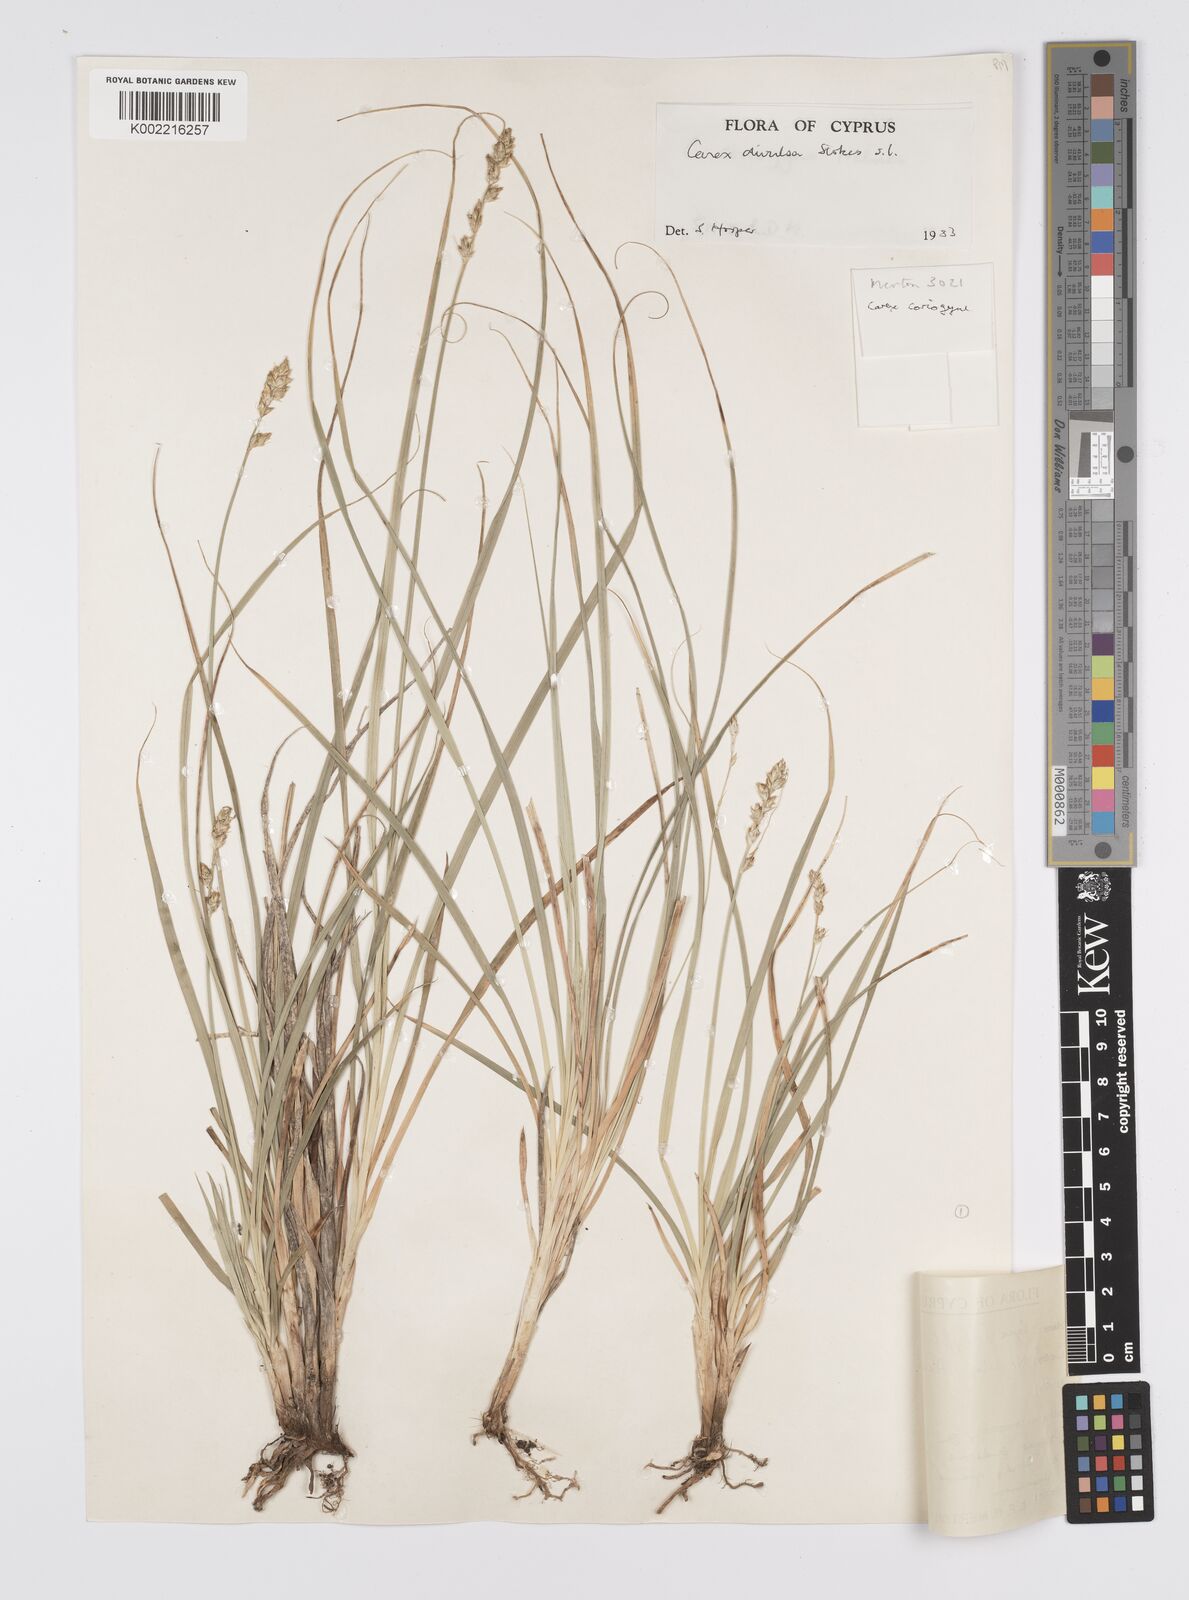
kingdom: Plantae
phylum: Tracheophyta
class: Liliopsida
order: Poales
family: Cyperaceae
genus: Carex
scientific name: Carex divulsa
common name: Grassland sedge
